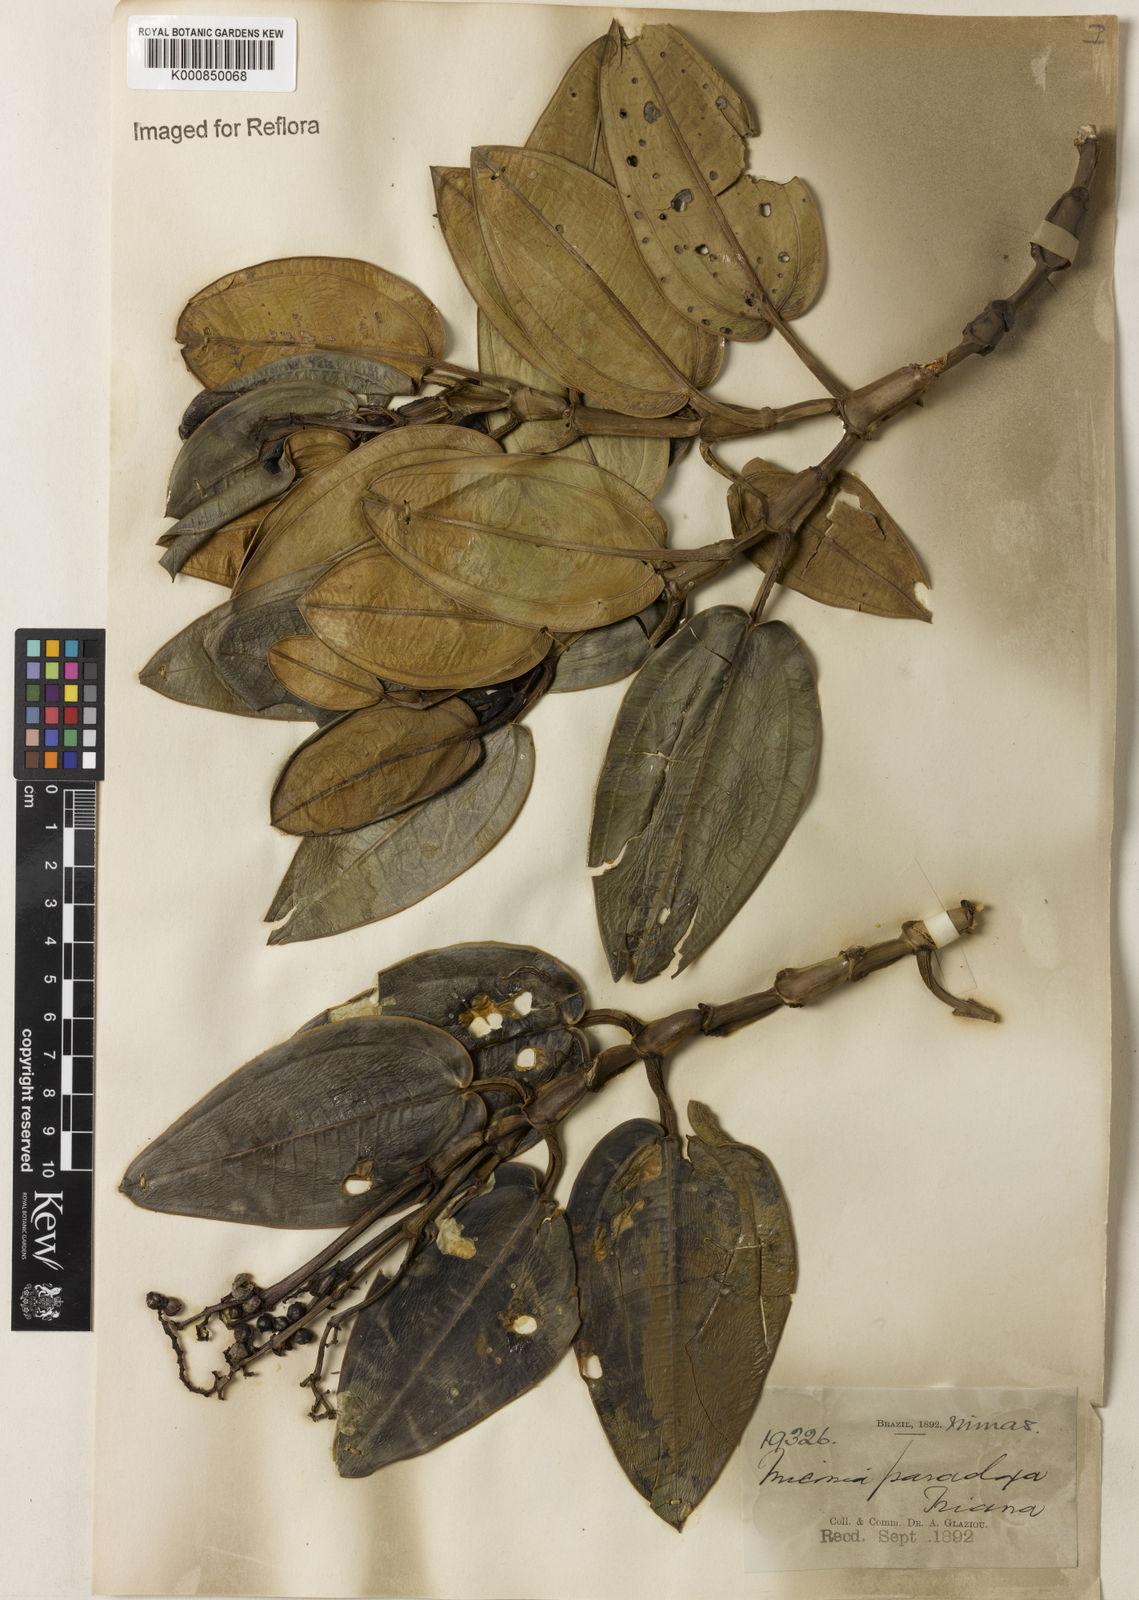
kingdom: Plantae
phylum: Tracheophyta
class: Magnoliopsida
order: Myrtales
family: Melastomataceae
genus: Miconia
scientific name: Miconia paradoxa
